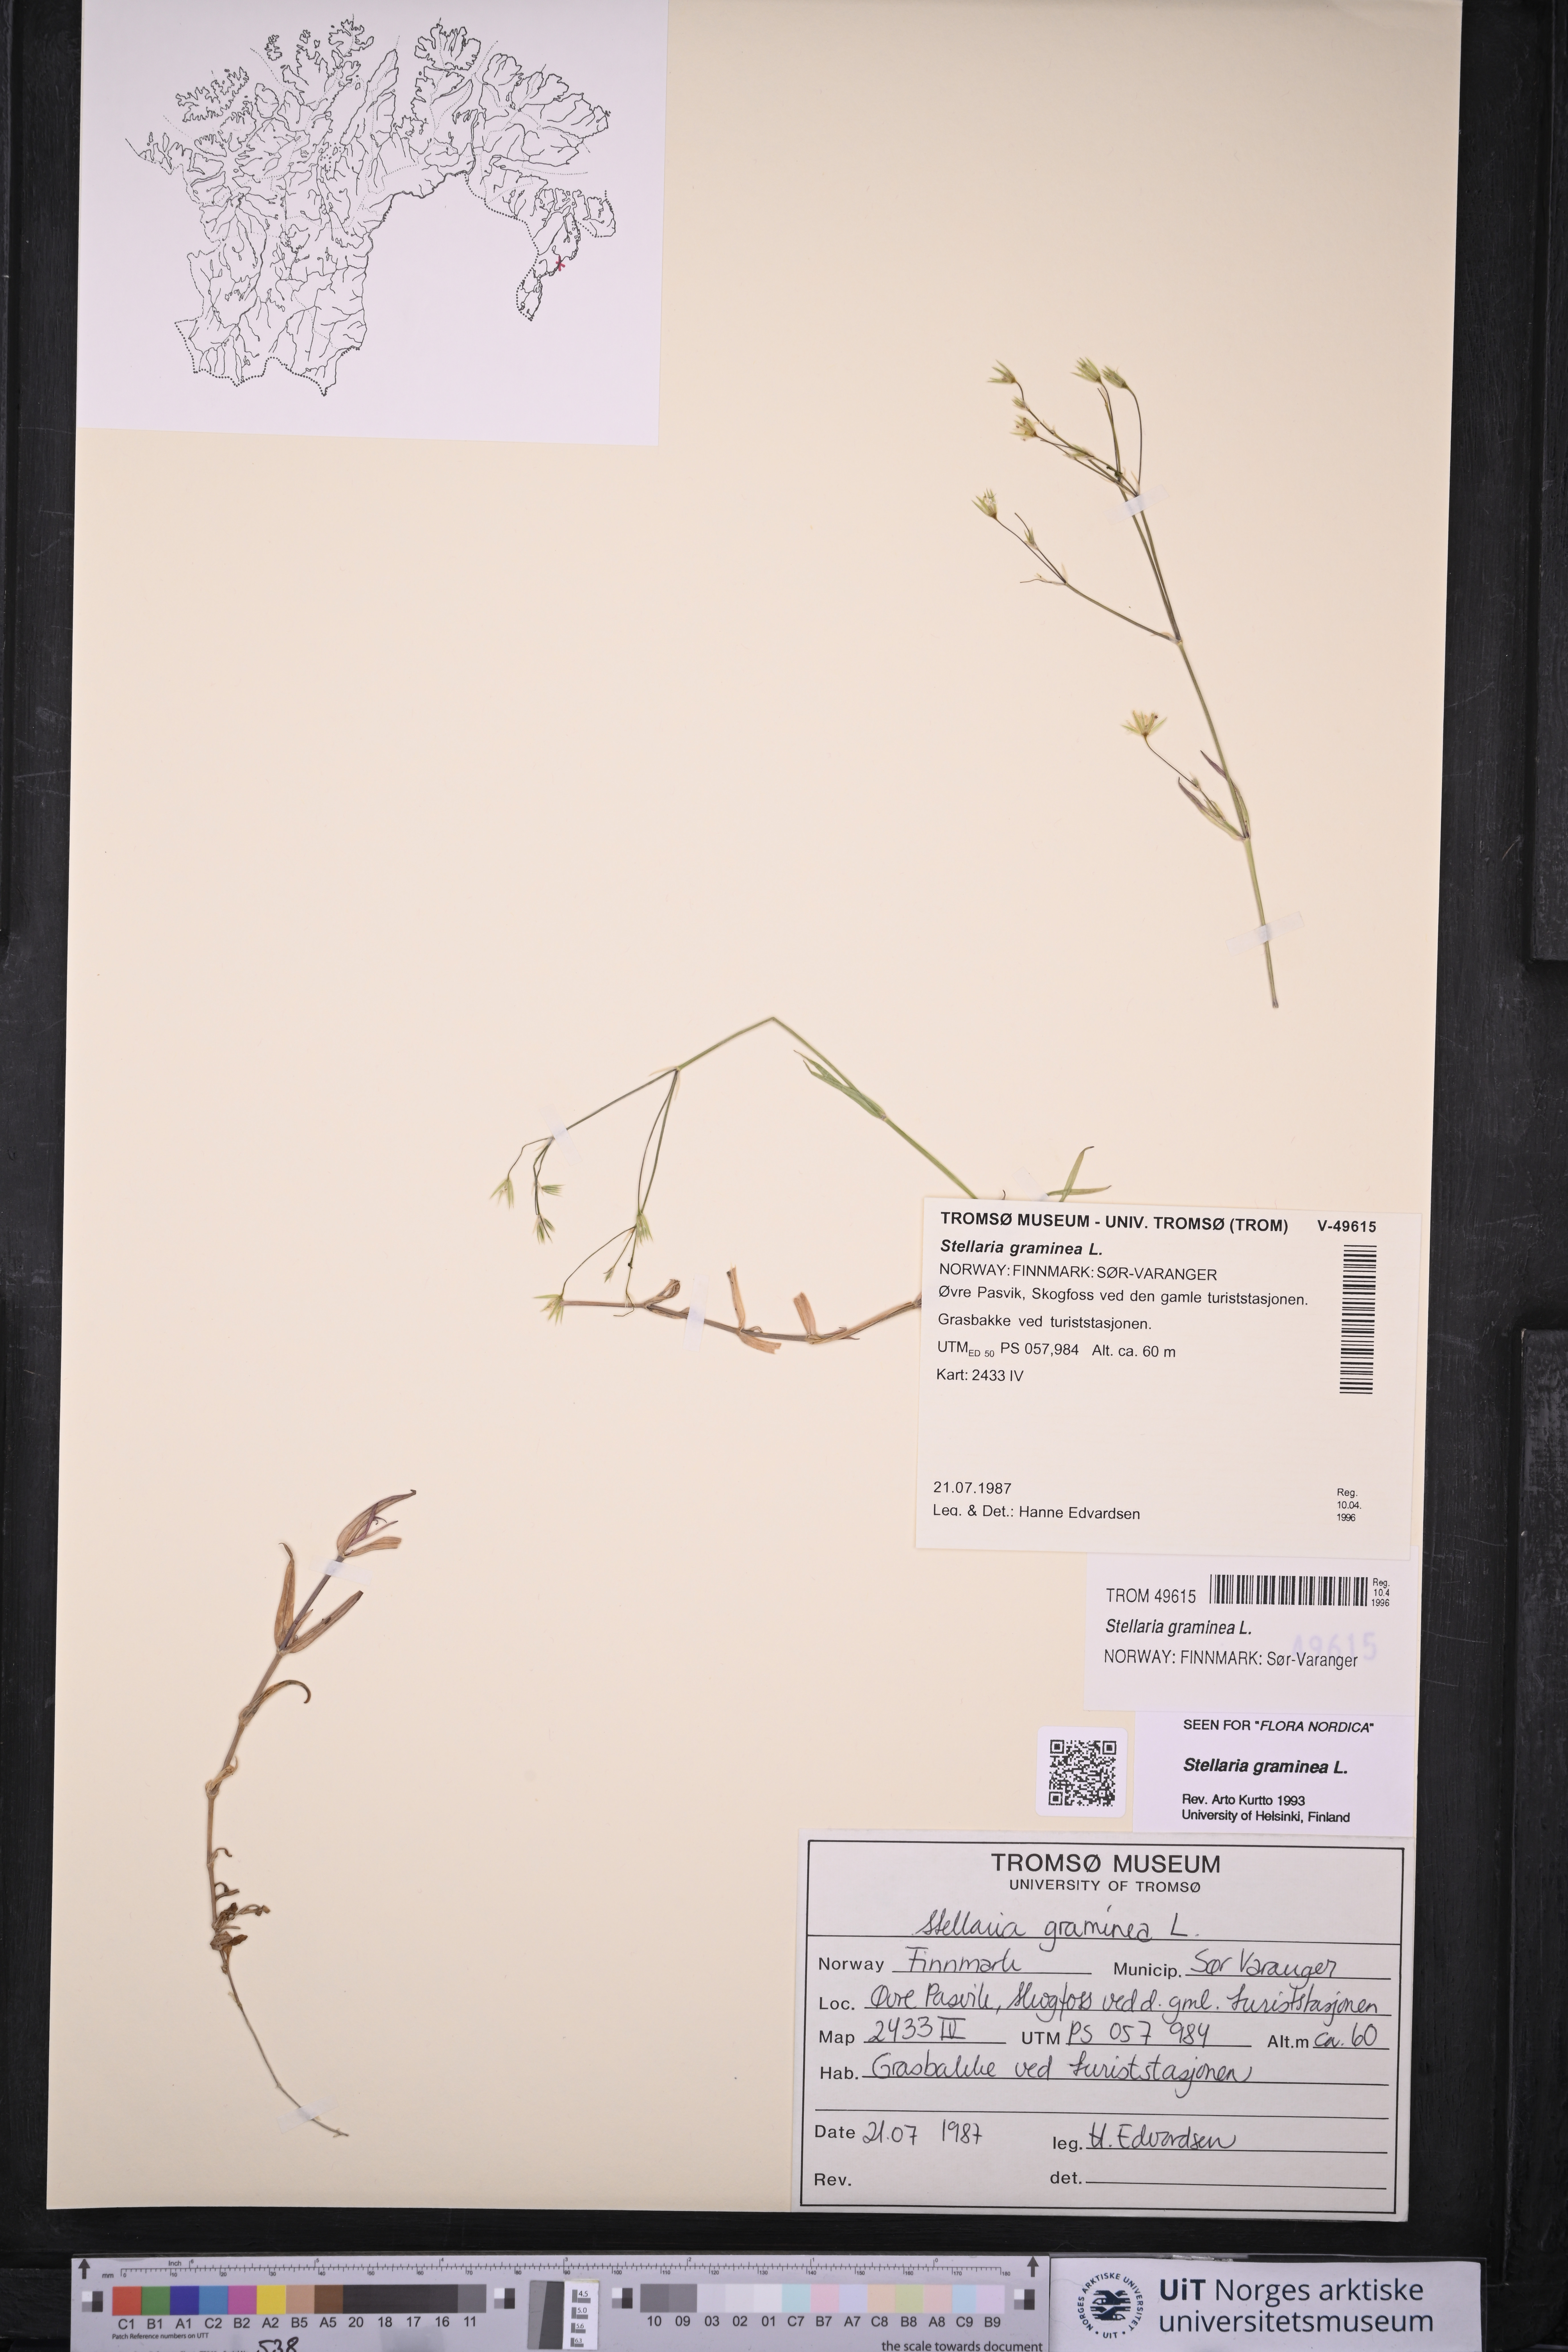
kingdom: Plantae
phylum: Tracheophyta
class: Magnoliopsida
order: Caryophyllales
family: Caryophyllaceae
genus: Stellaria
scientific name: Stellaria graminea
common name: Grass-like starwort
